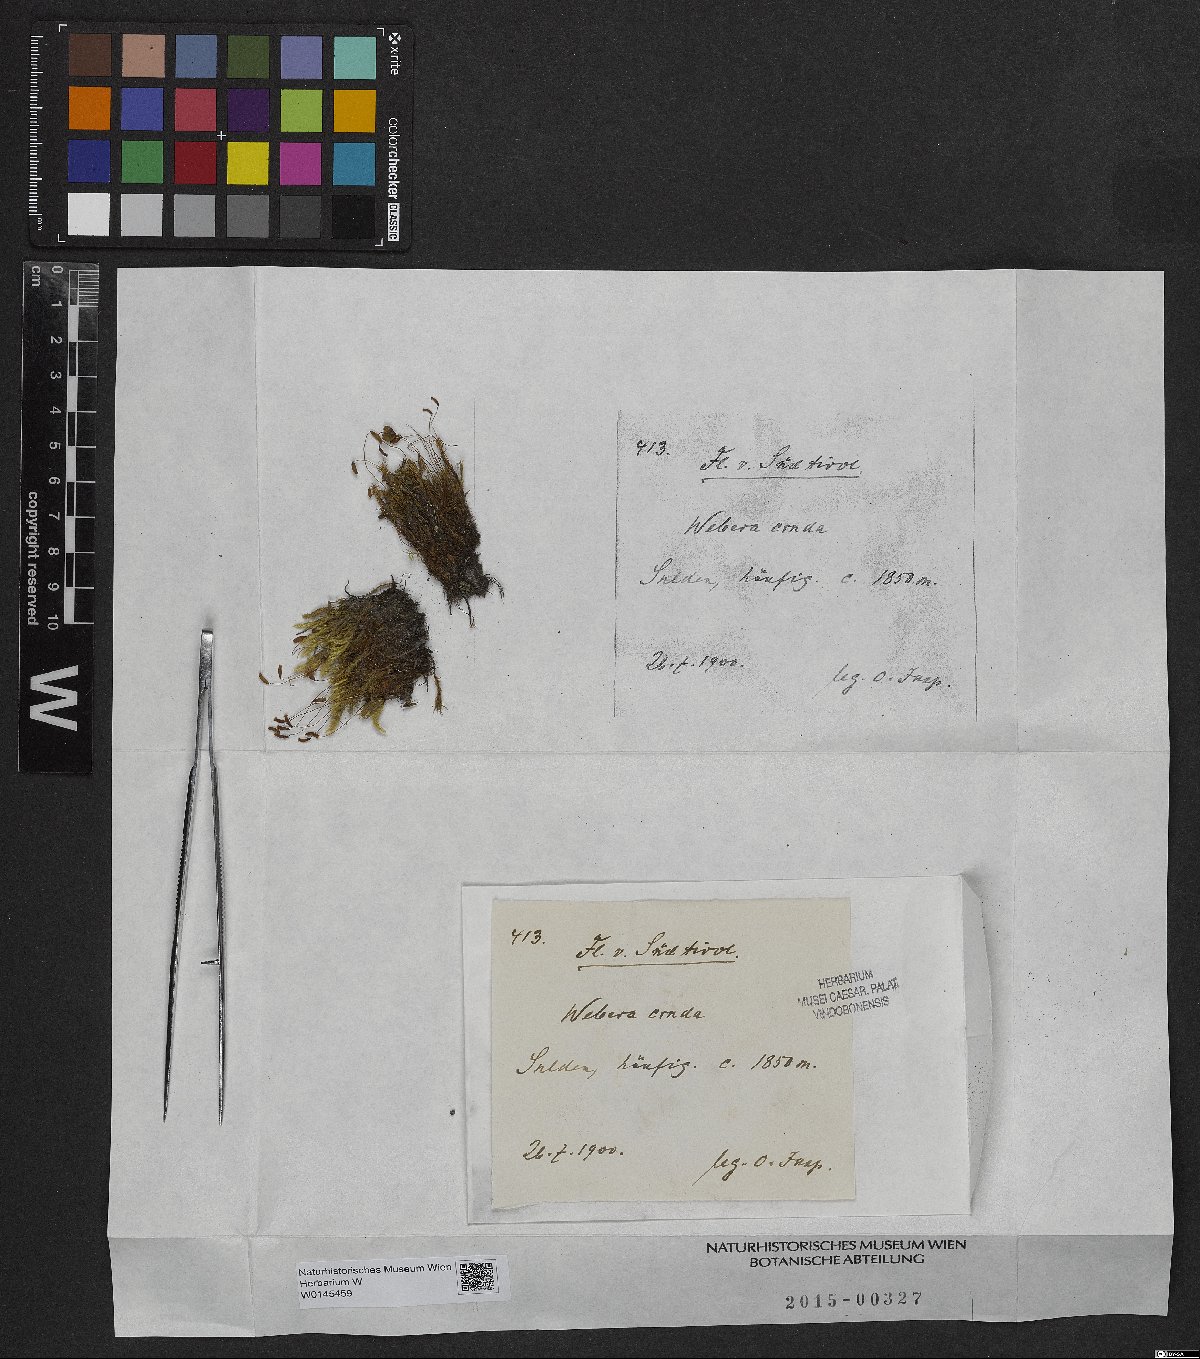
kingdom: Plantae
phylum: Bryophyta
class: Bryopsida
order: Bryales
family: Mniaceae
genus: Pohlia
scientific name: Pohlia cruda
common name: Opal nodding moss
